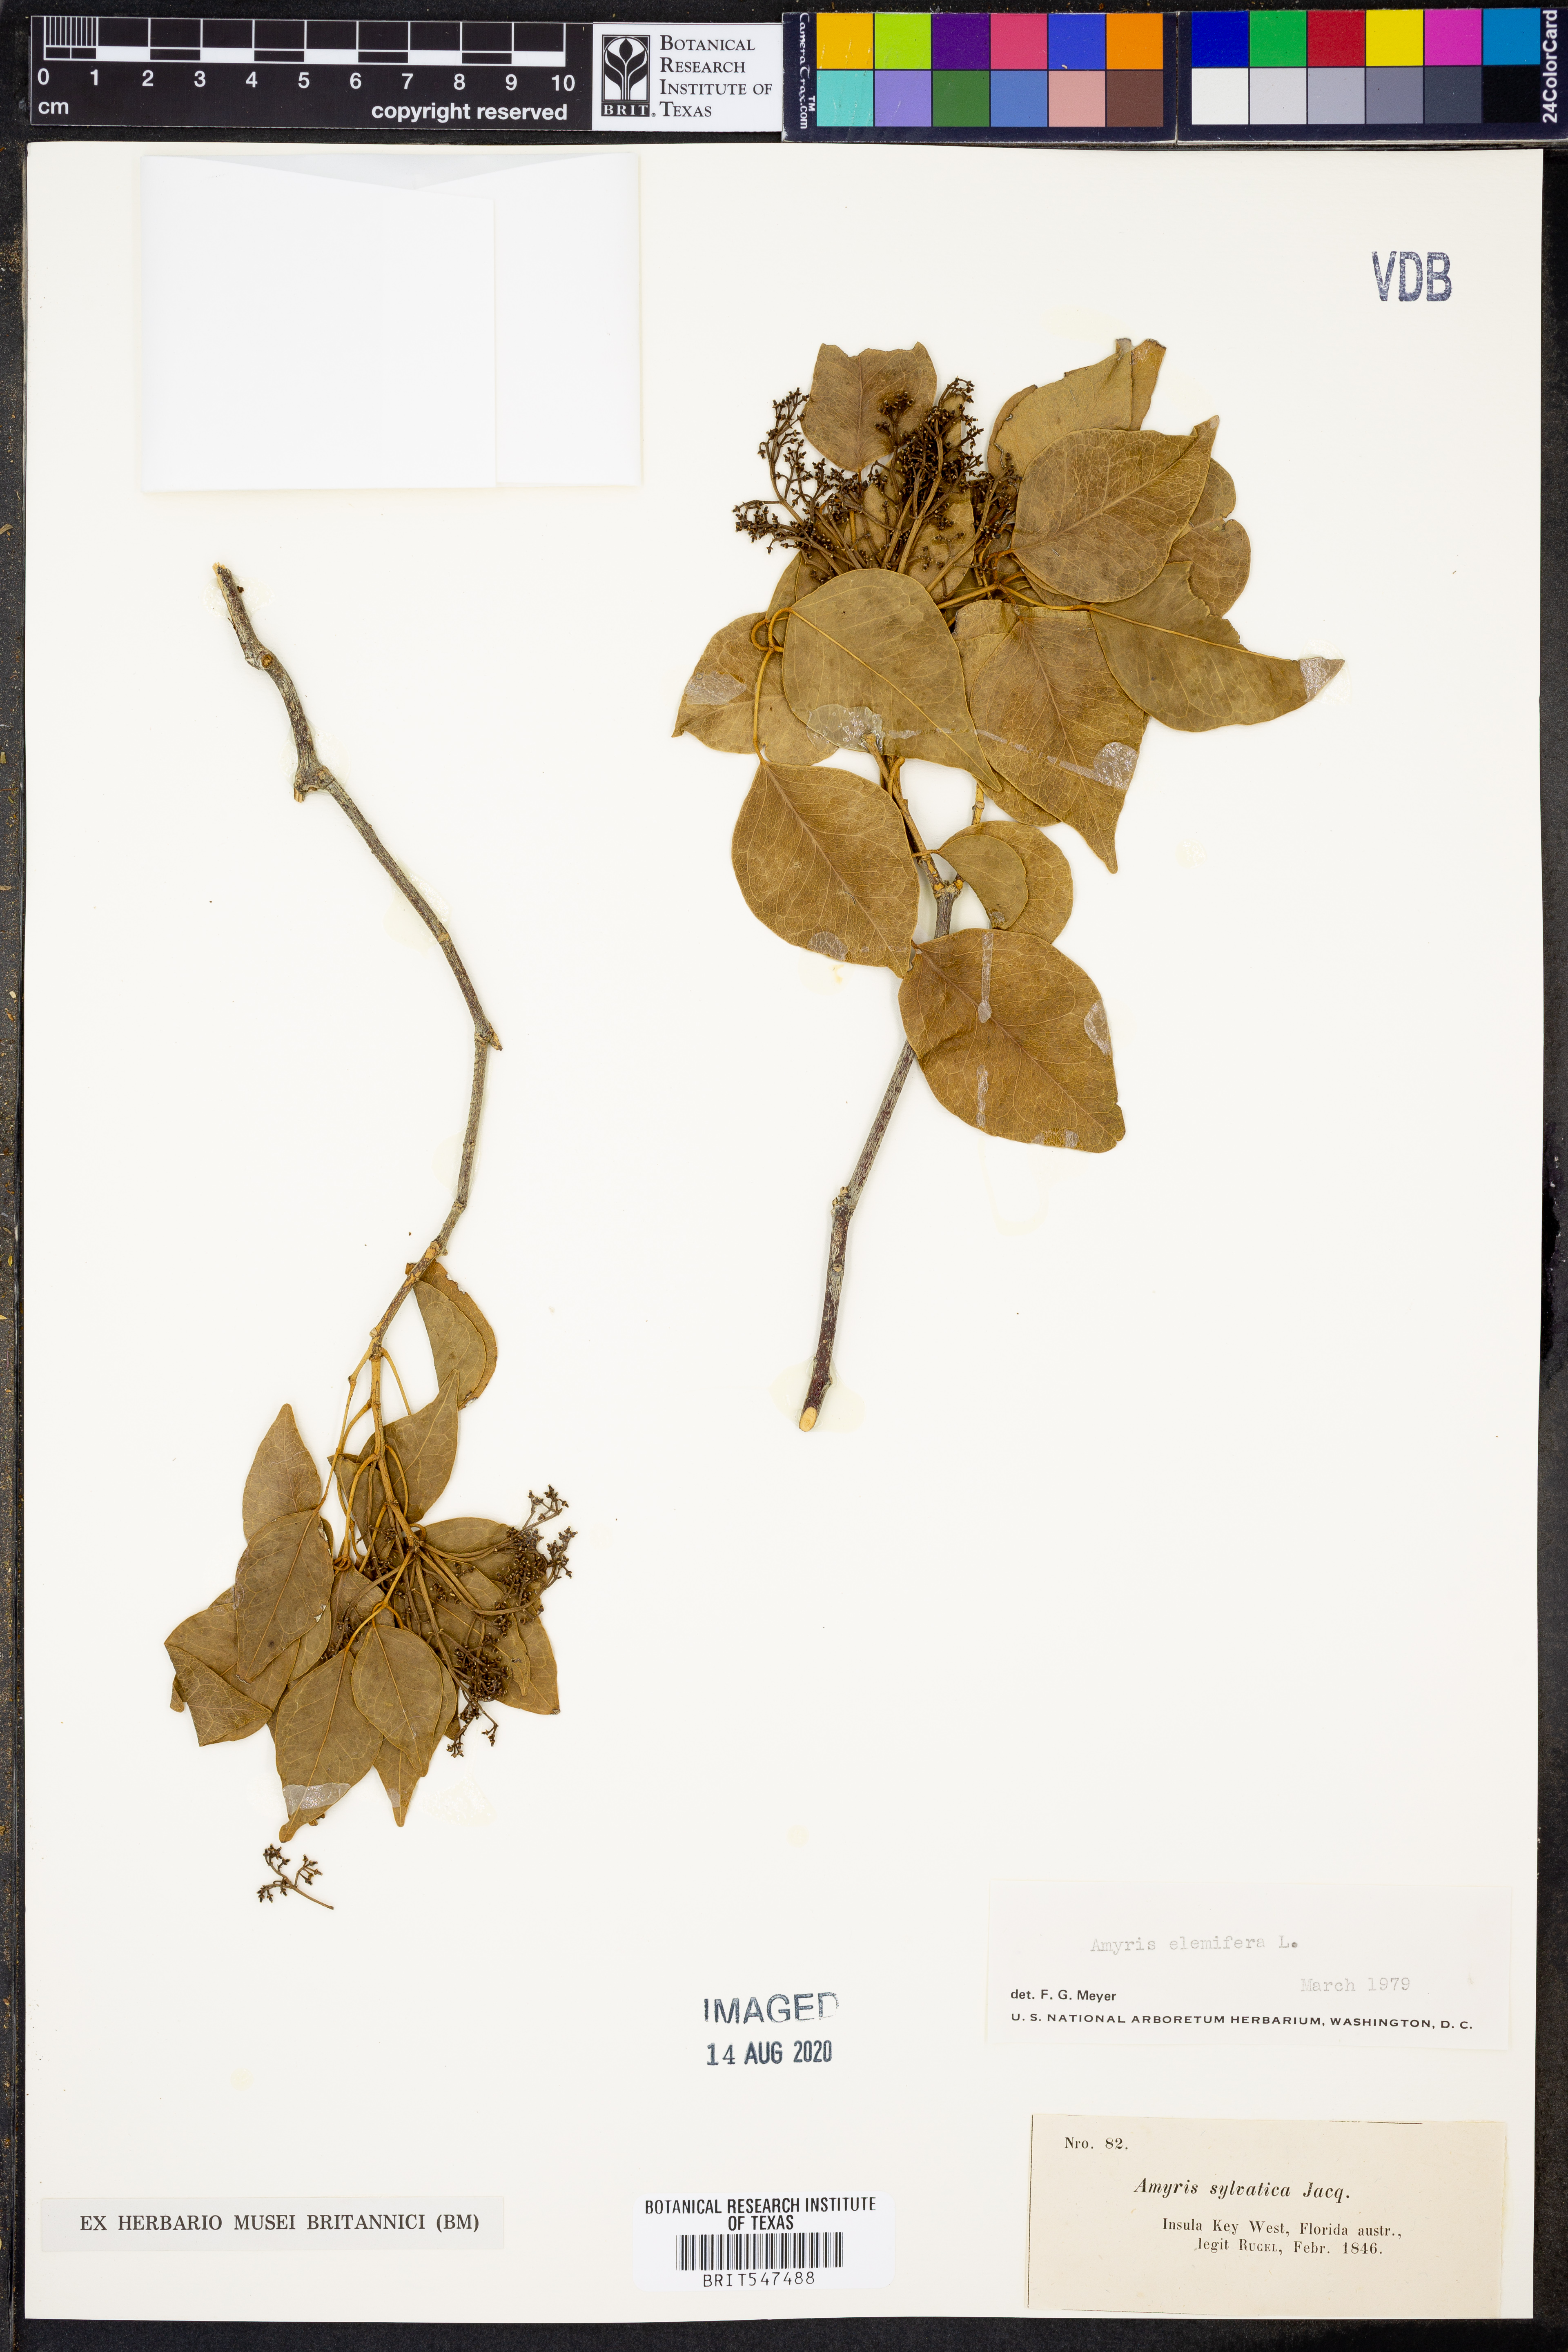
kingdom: Plantae
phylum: Tracheophyta
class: Magnoliopsida
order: Sapindales
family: Rutaceae
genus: Amyris
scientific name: Amyris elemifera
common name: Sea amyris
